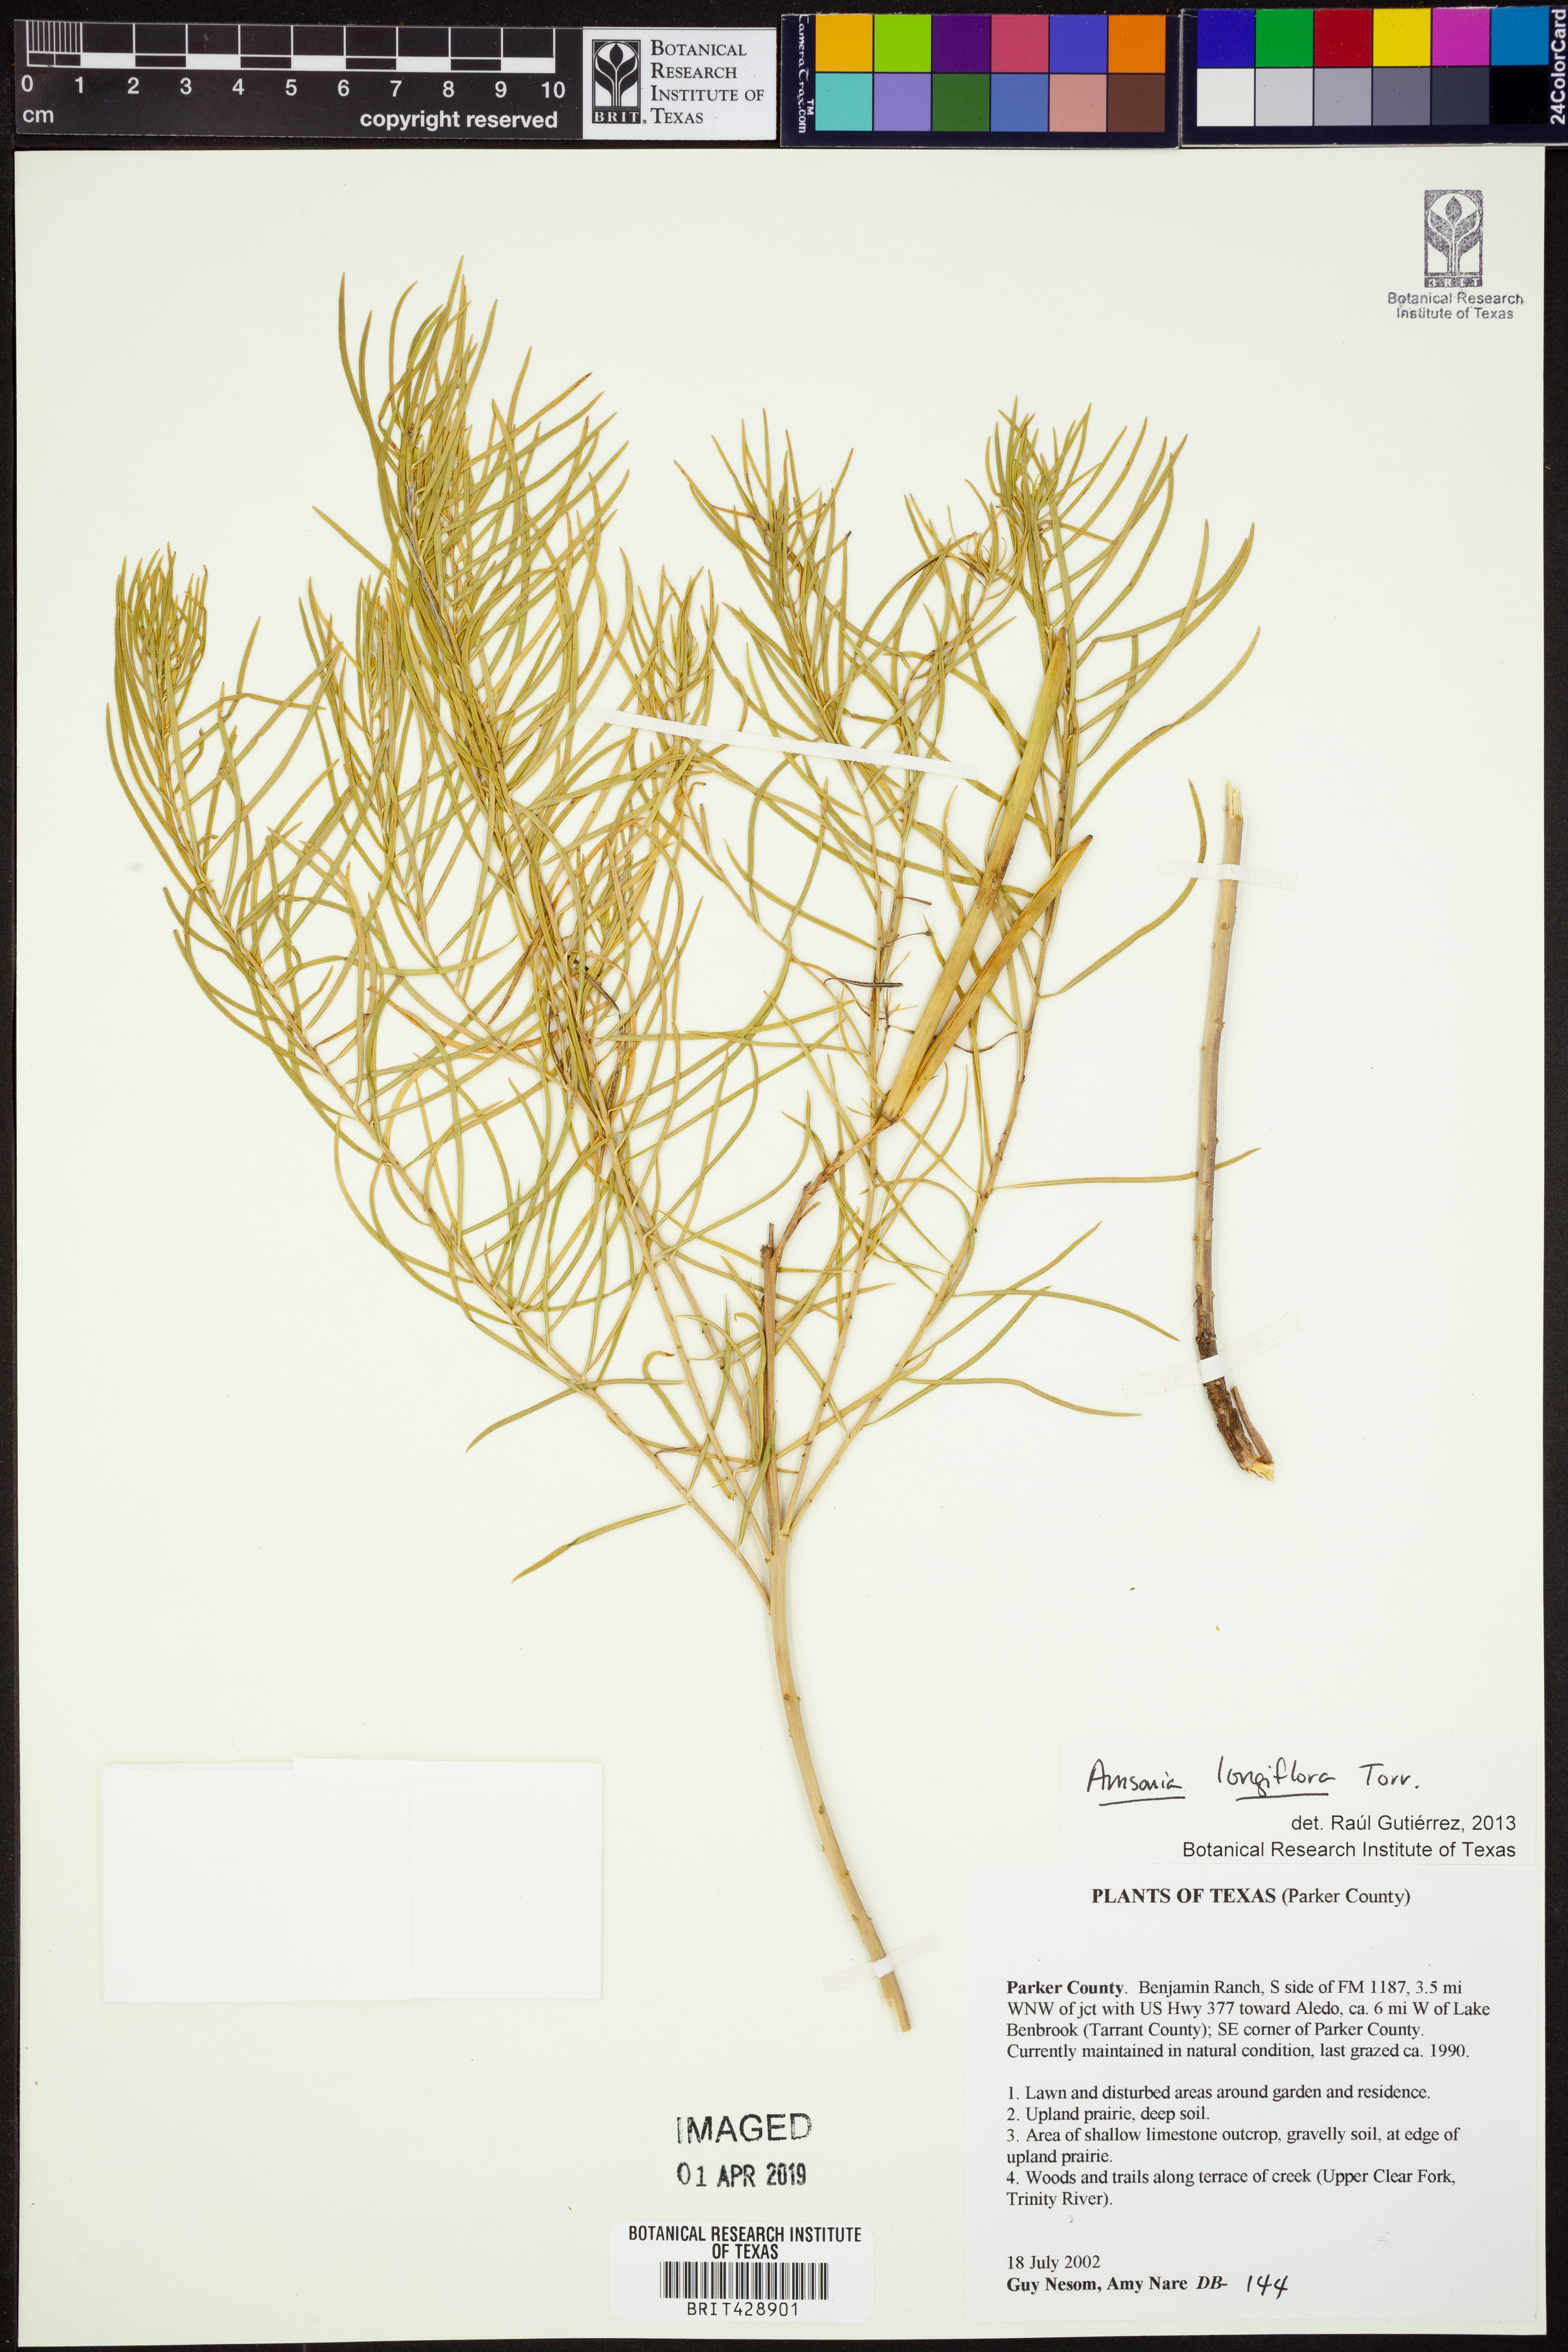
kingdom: Plantae
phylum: Tracheophyta
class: Magnoliopsida
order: Gentianales
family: Apocynaceae
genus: Amsonia
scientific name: Amsonia longiflora
